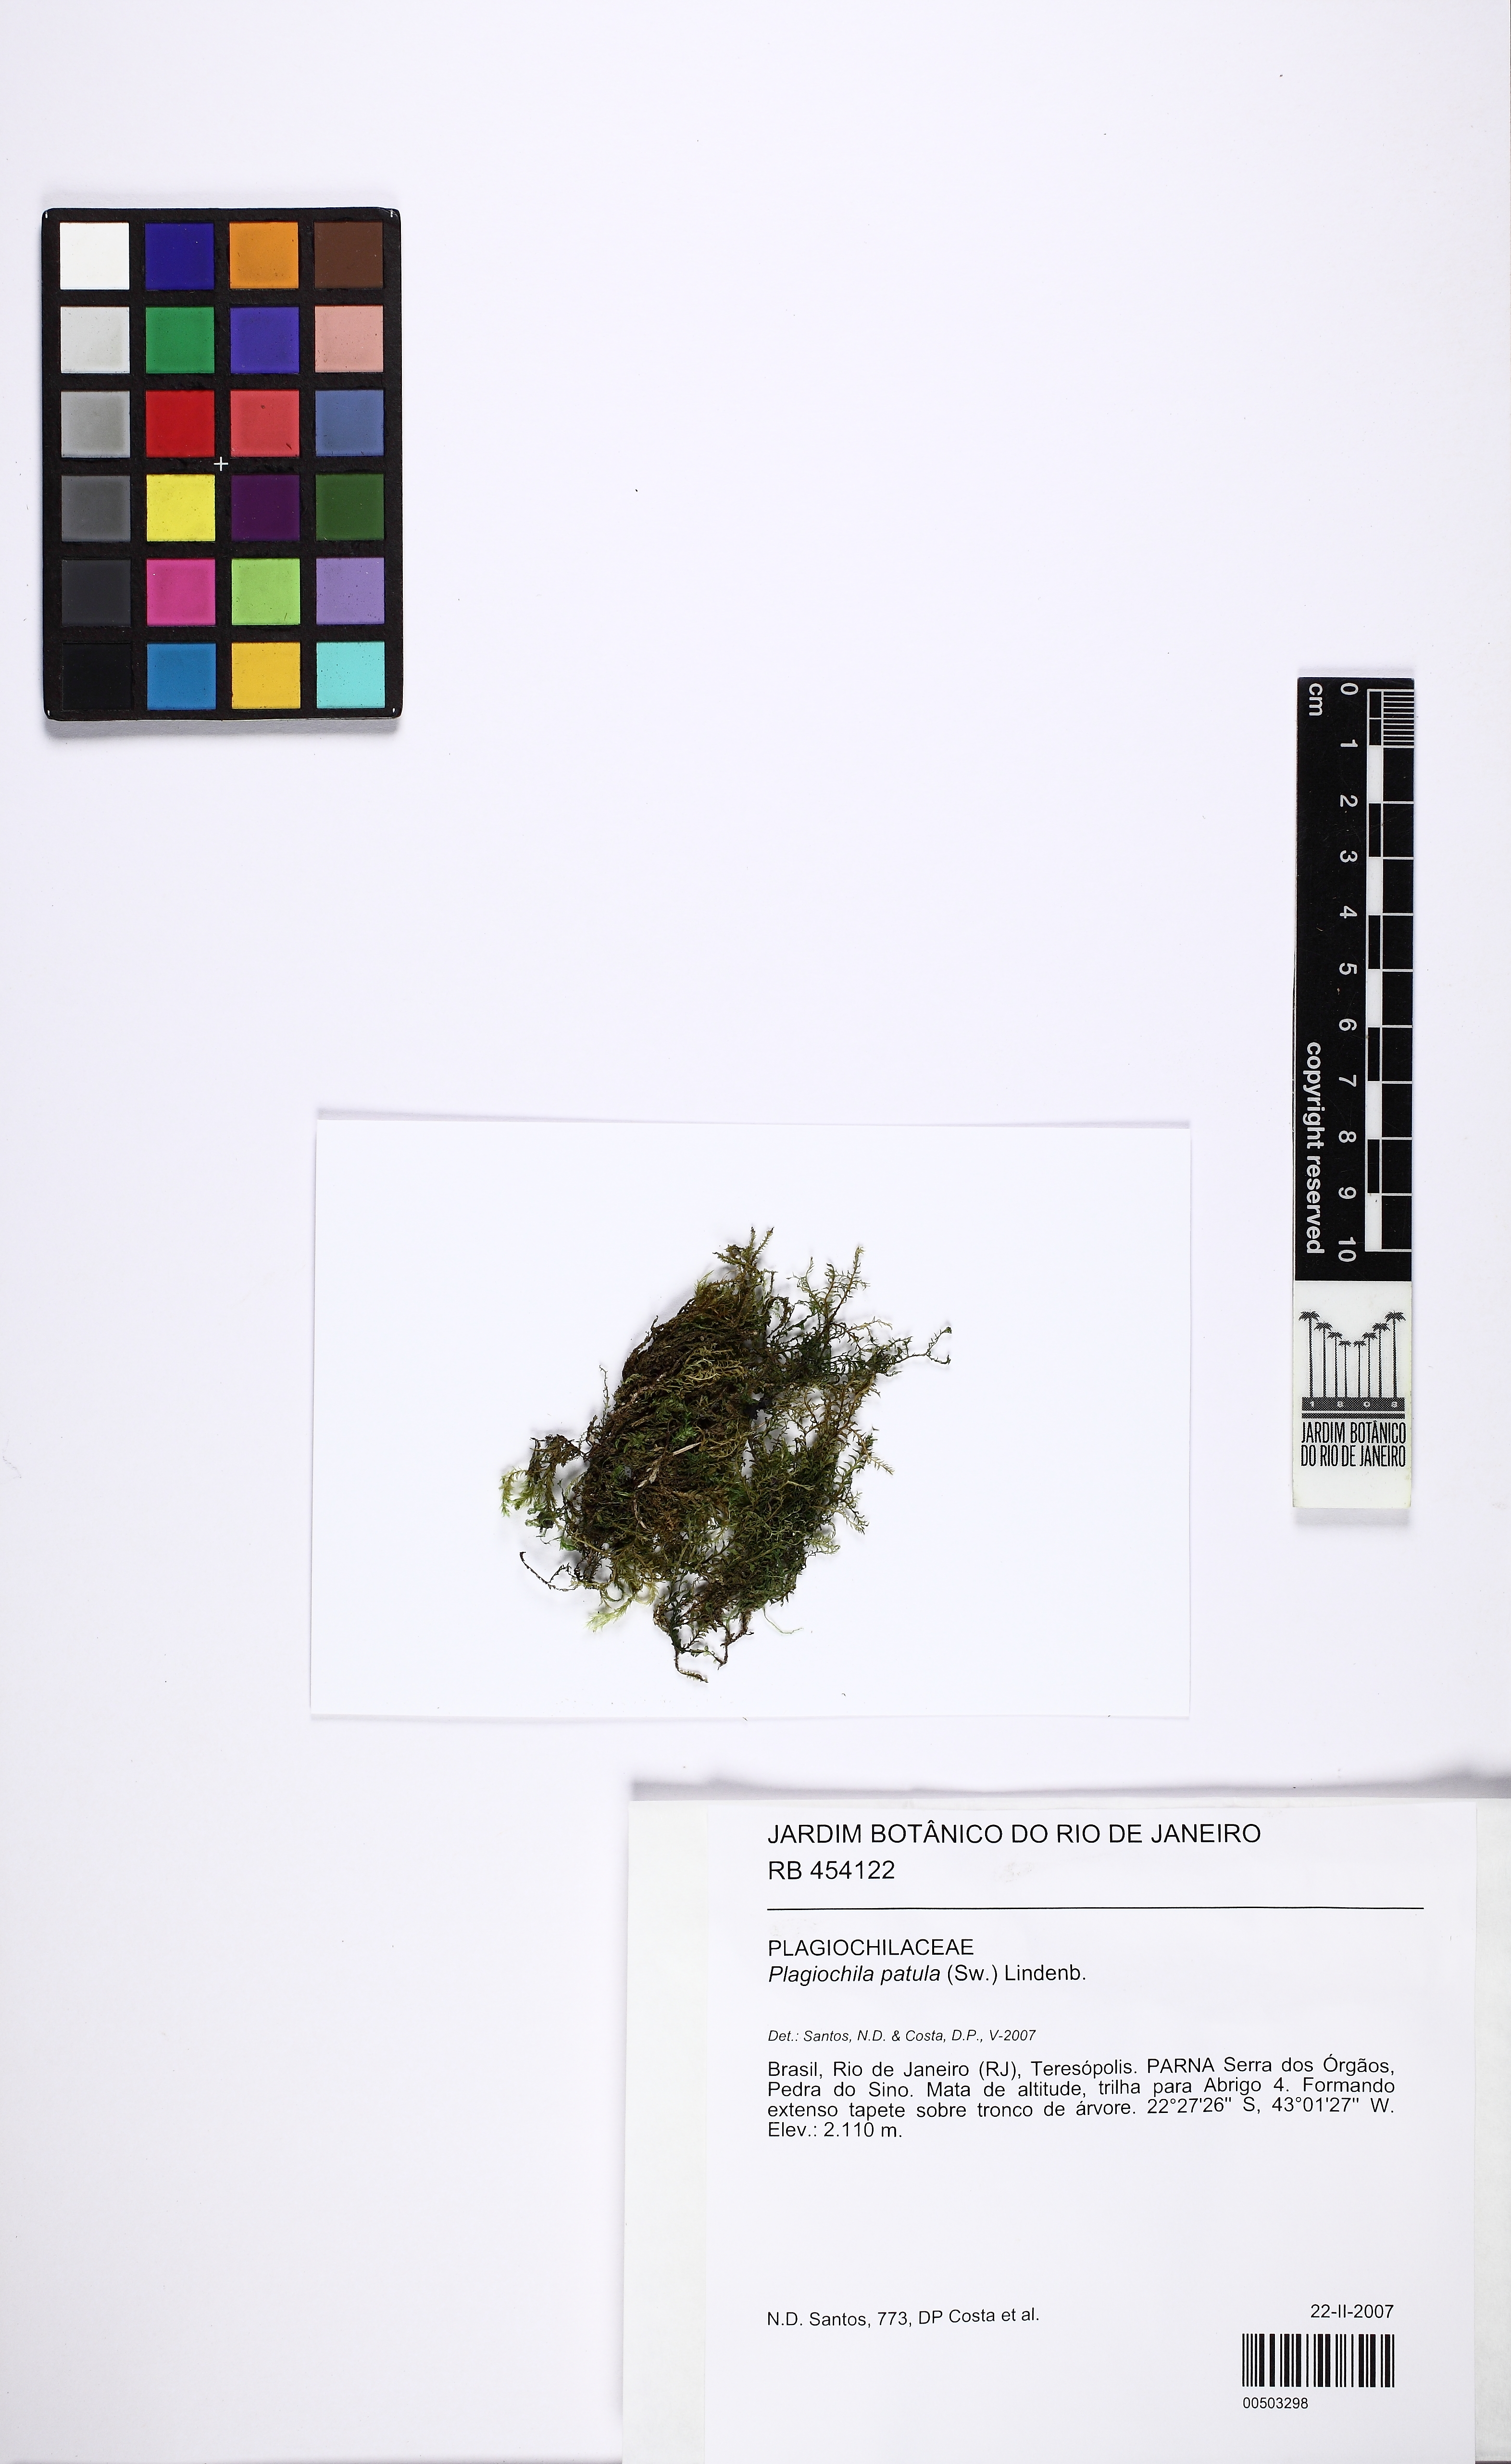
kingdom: Plantae
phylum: Marchantiophyta
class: Jungermanniopsida
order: Jungermanniales
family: Plagiochilaceae
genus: Plagiochila
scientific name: Plagiochila patula
